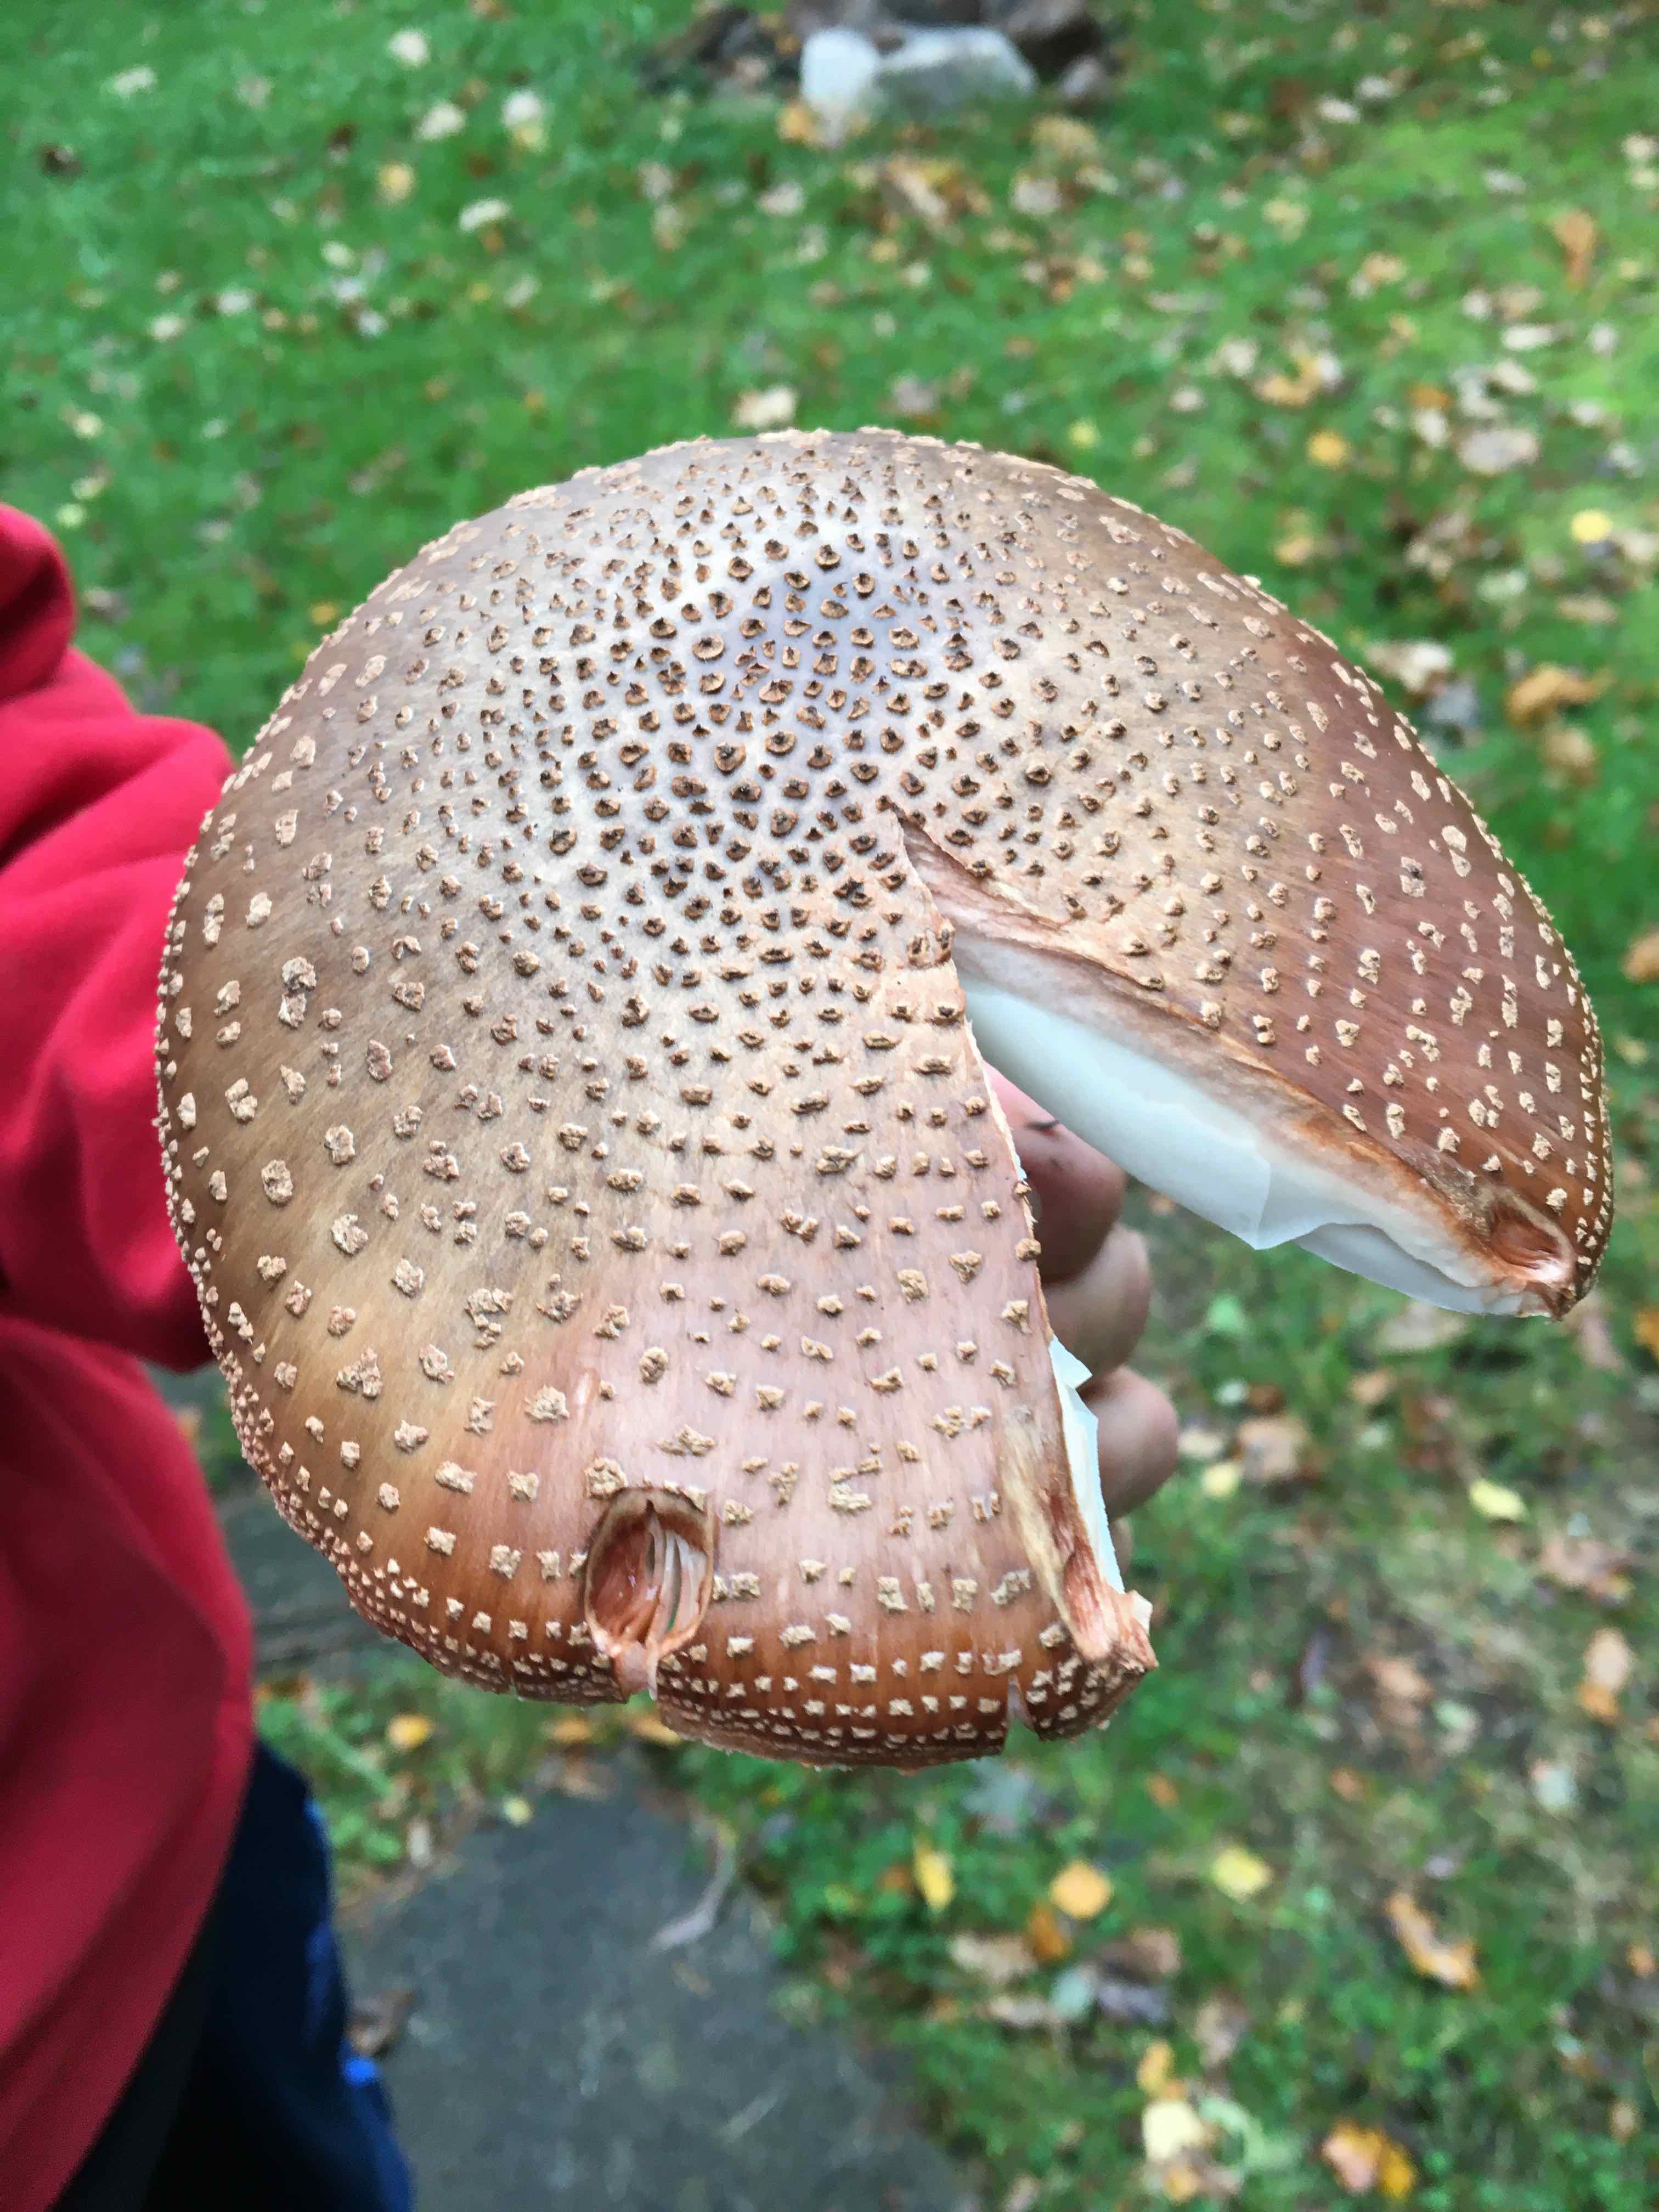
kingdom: Fungi
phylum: Basidiomycota
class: Agaricomycetes
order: Agaricales
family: Amanitaceae
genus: Amanita
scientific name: Amanita rubescens
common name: rødmende fluesvamp
